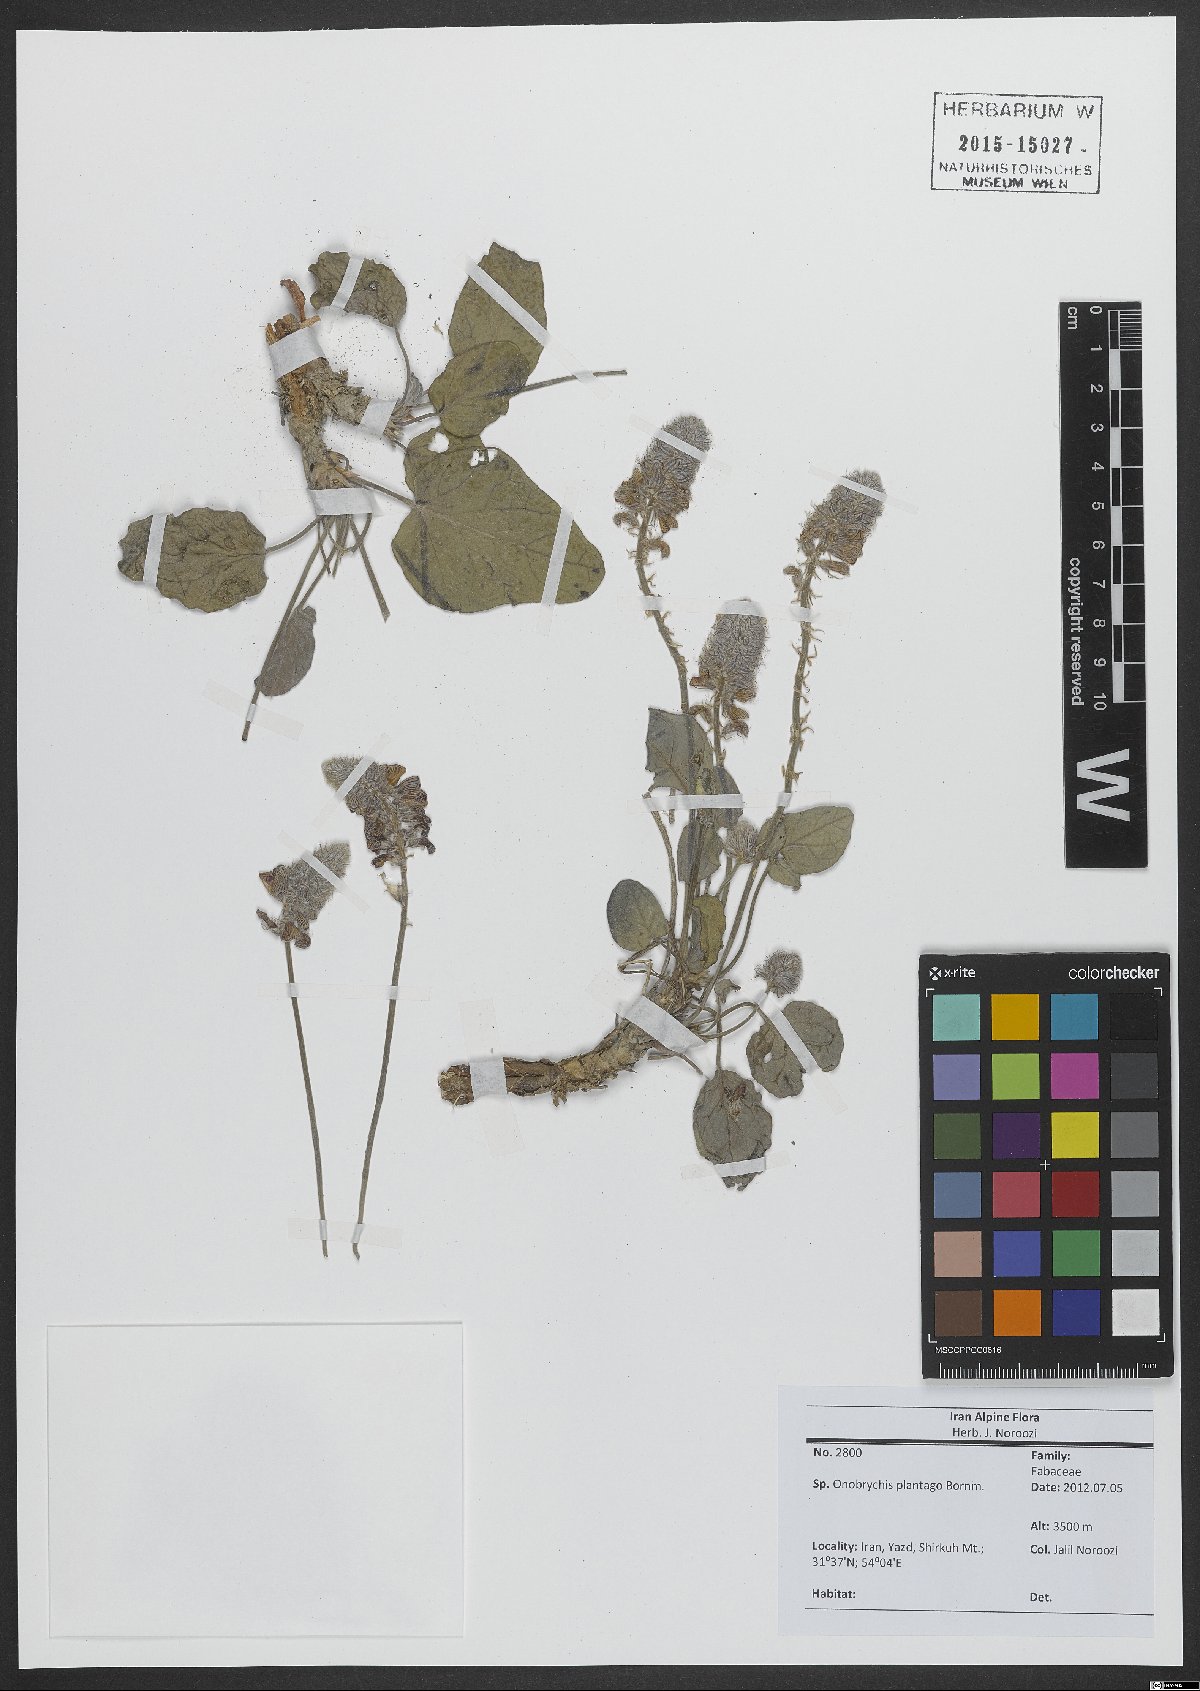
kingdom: Plantae
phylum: Tracheophyta
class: Magnoliopsida
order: Fabales
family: Fabaceae
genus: Onobrychis
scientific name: Onobrychis plantago
